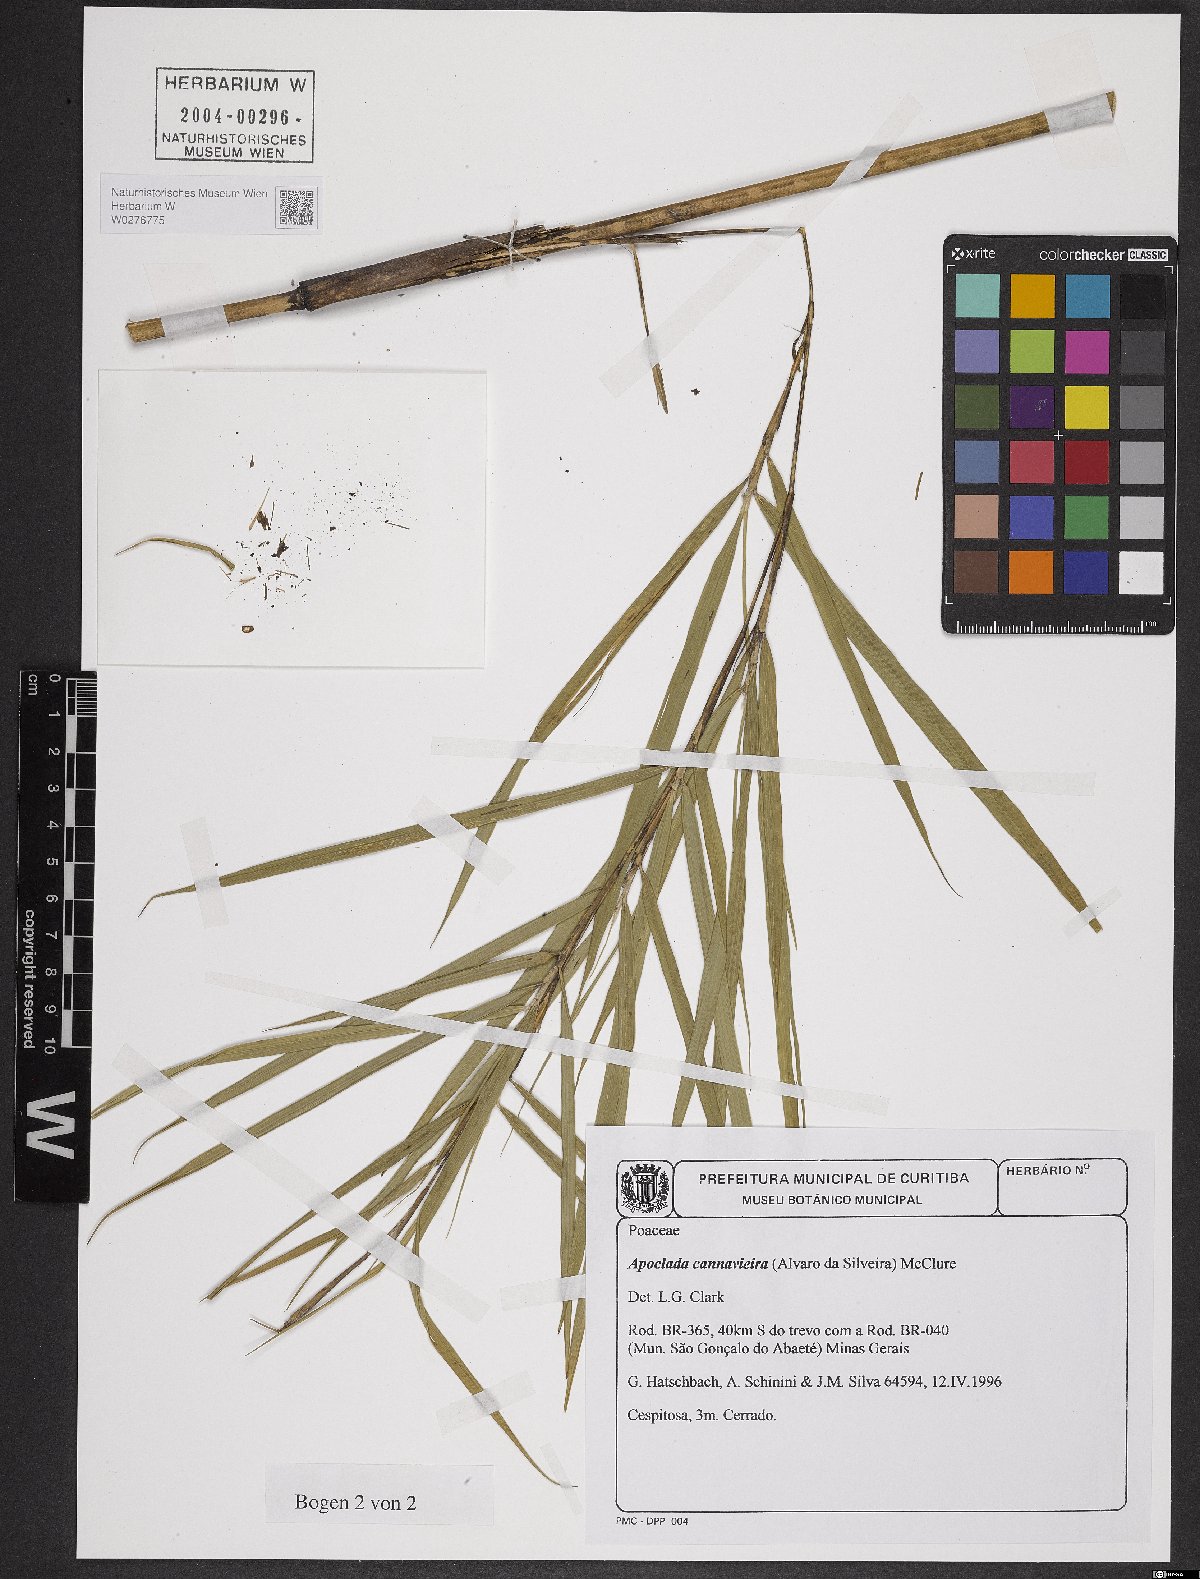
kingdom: Plantae
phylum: Tracheophyta
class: Liliopsida
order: Poales
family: Poaceae
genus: Filgueirasia
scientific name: Filgueirasia cannavieira
